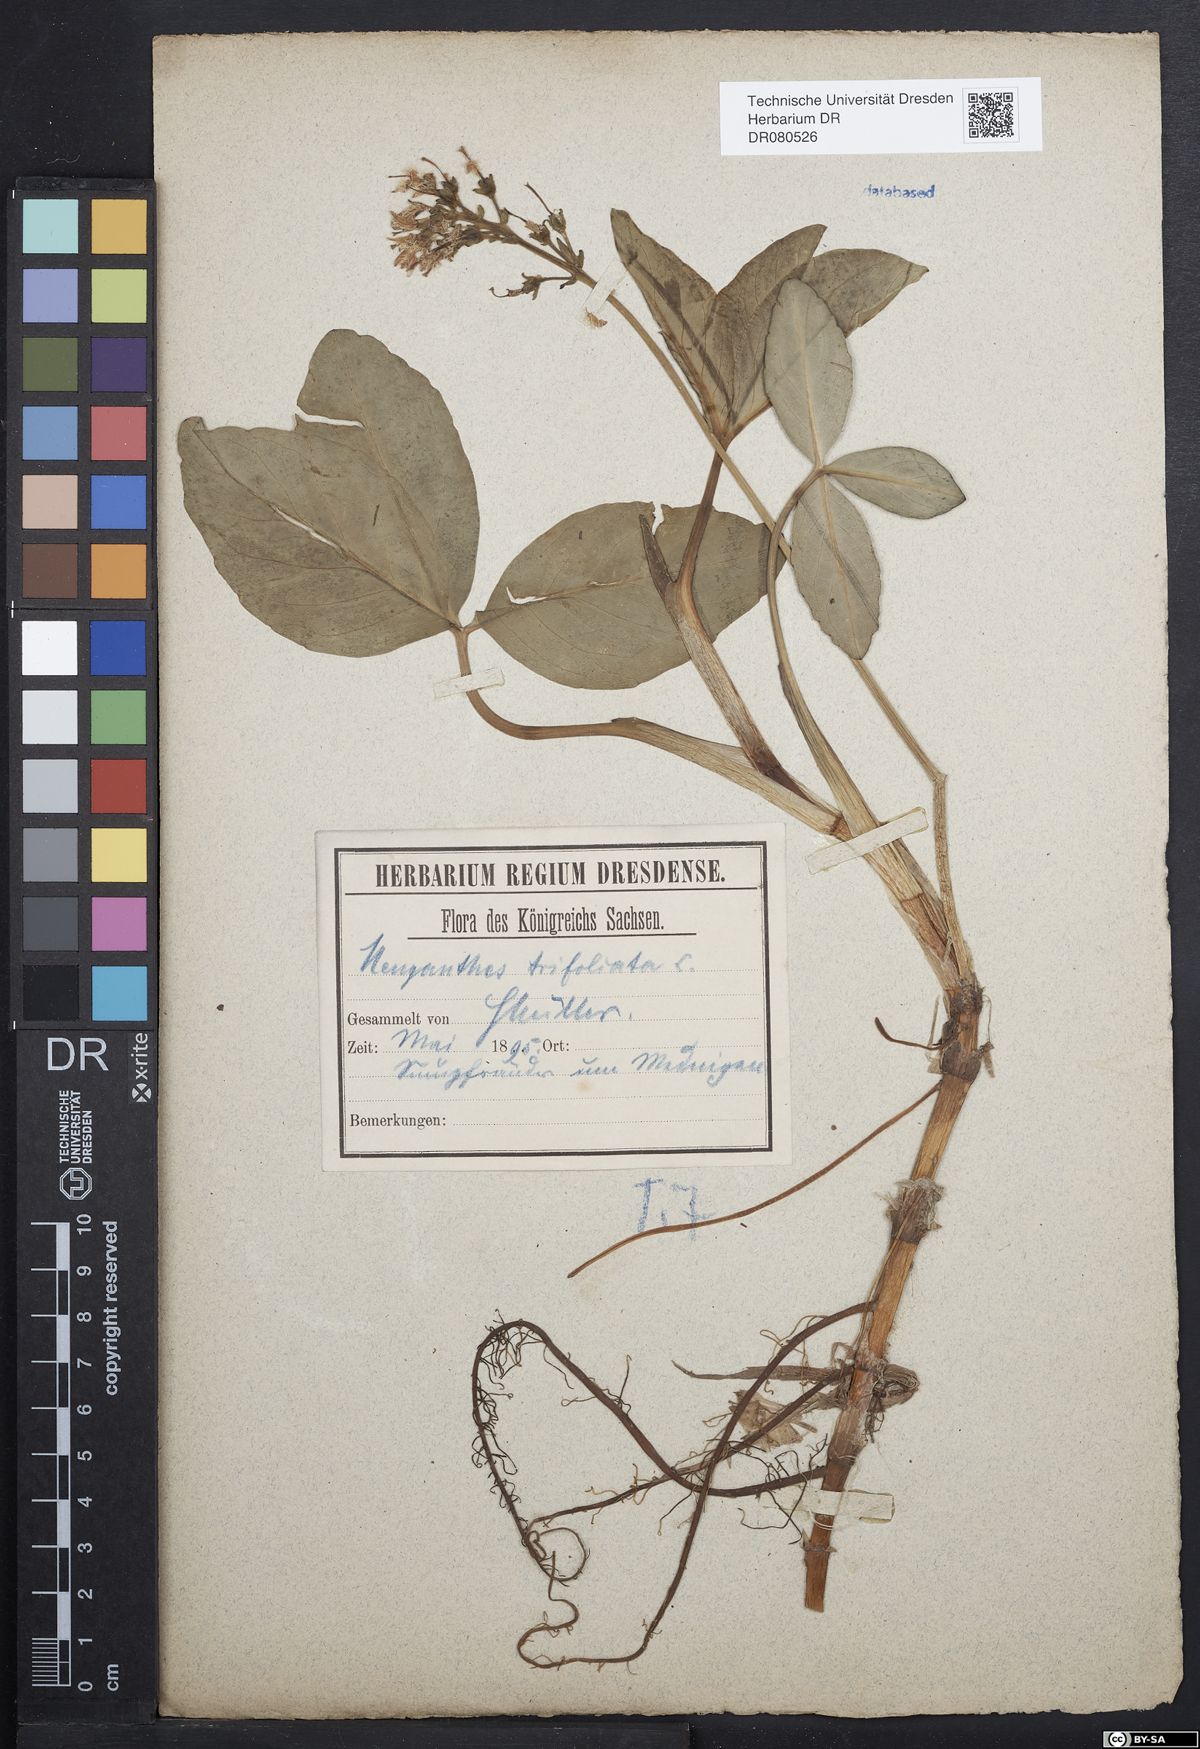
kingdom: Plantae
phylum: Tracheophyta
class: Magnoliopsida
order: Asterales
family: Menyanthaceae
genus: Menyanthes
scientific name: Menyanthes trifoliata
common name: Bogbean
